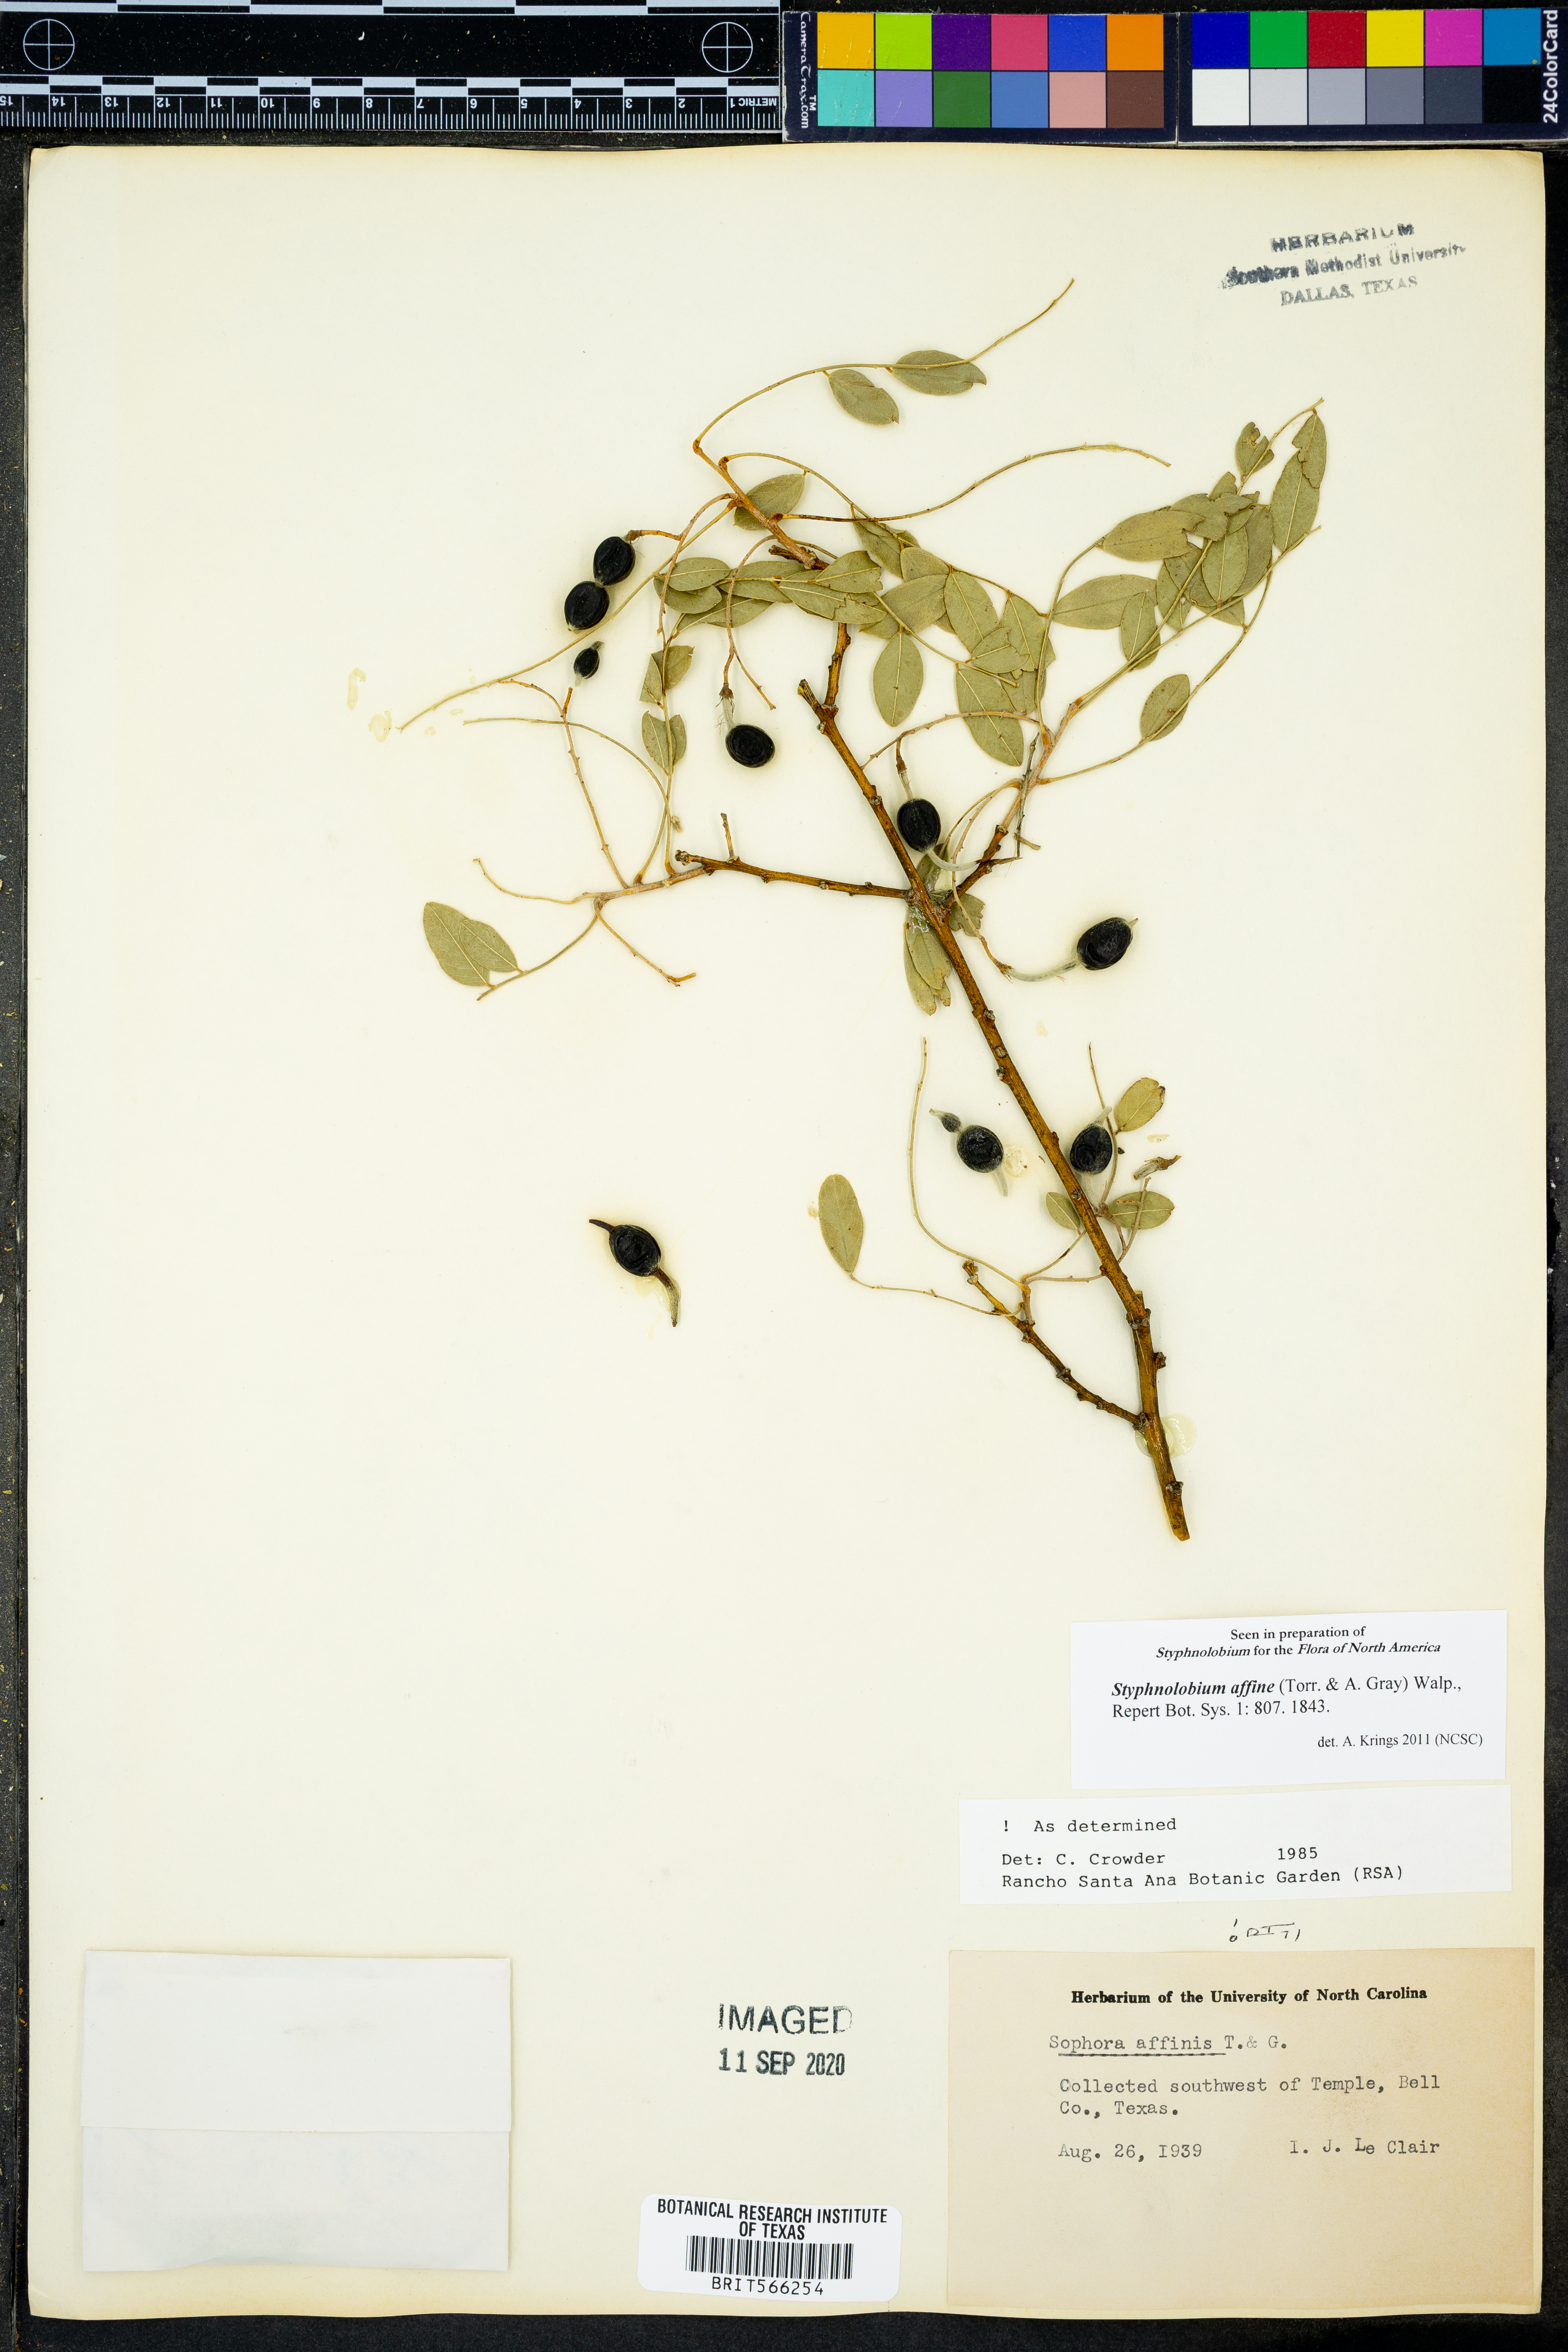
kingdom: Plantae
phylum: Tracheophyta
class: Magnoliopsida
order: Fabales
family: Fabaceae
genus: Styphnolobium
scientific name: Styphnolobium affine
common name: Texas sophora
